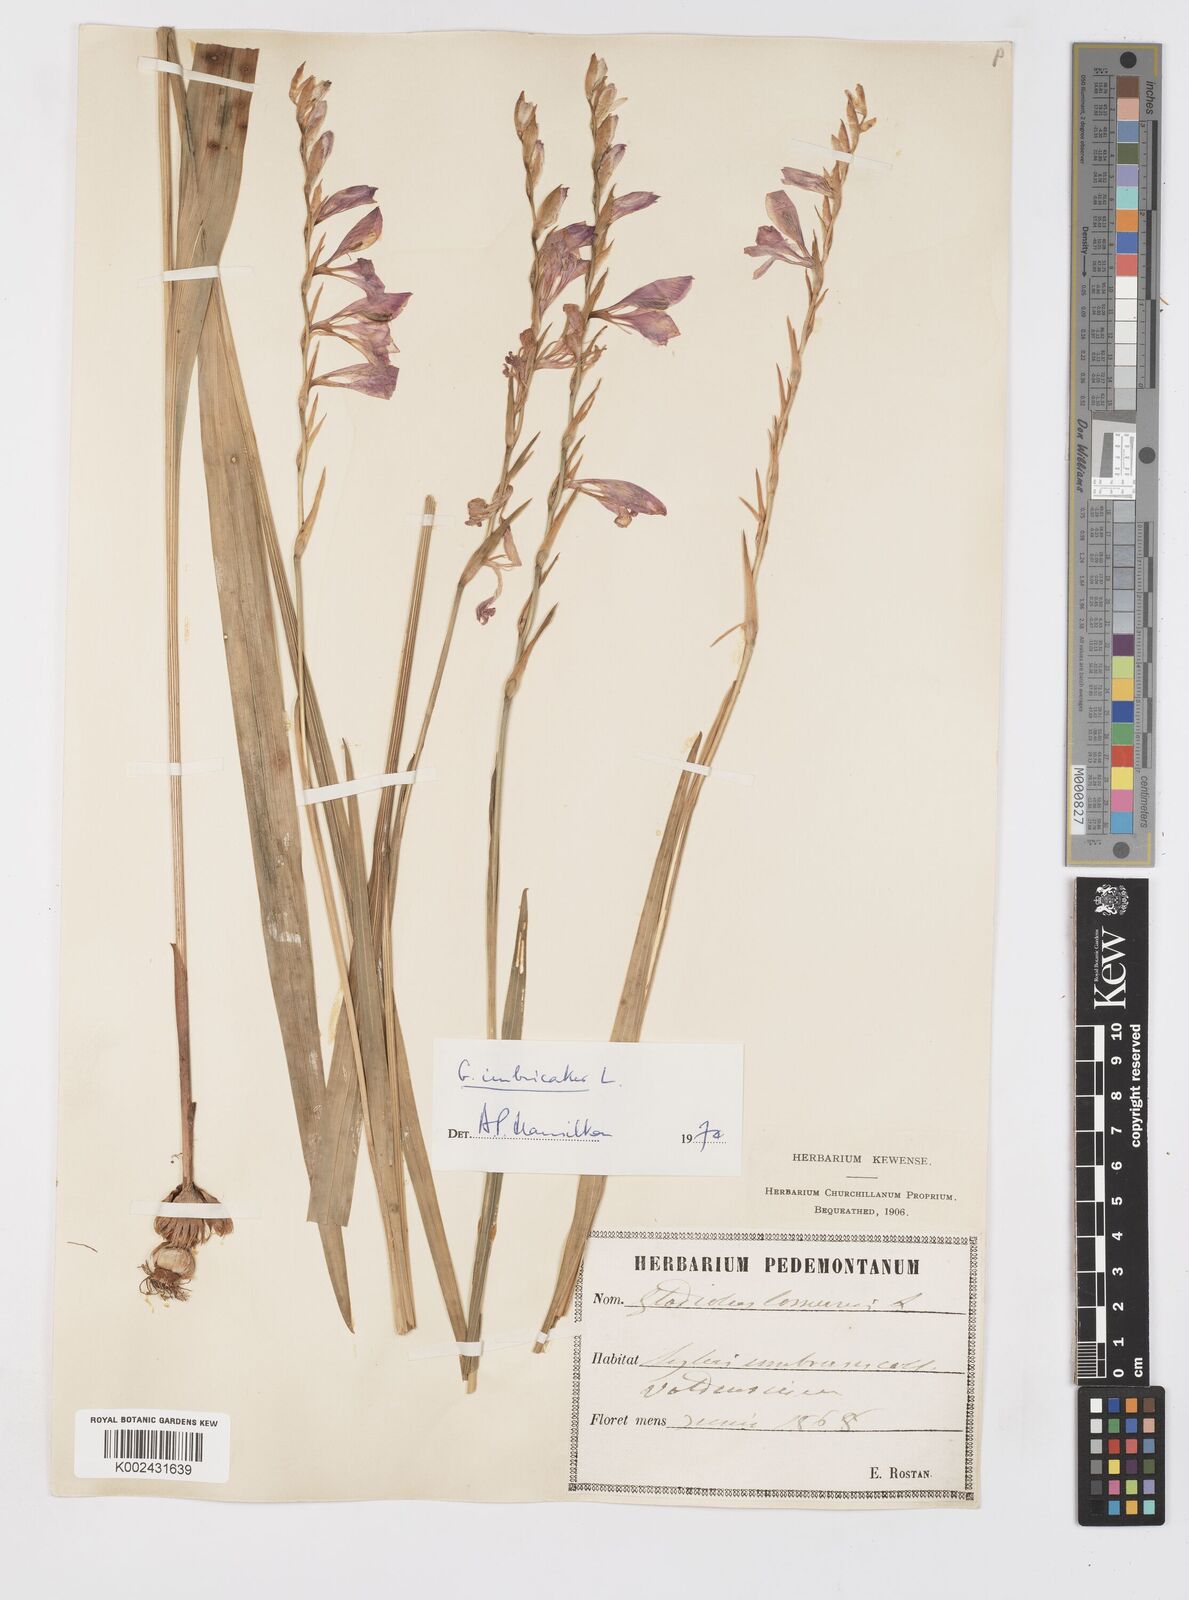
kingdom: Plantae
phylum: Tracheophyta
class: Liliopsida
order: Asparagales
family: Iridaceae
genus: Gladiolus
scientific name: Gladiolus imbricatus
